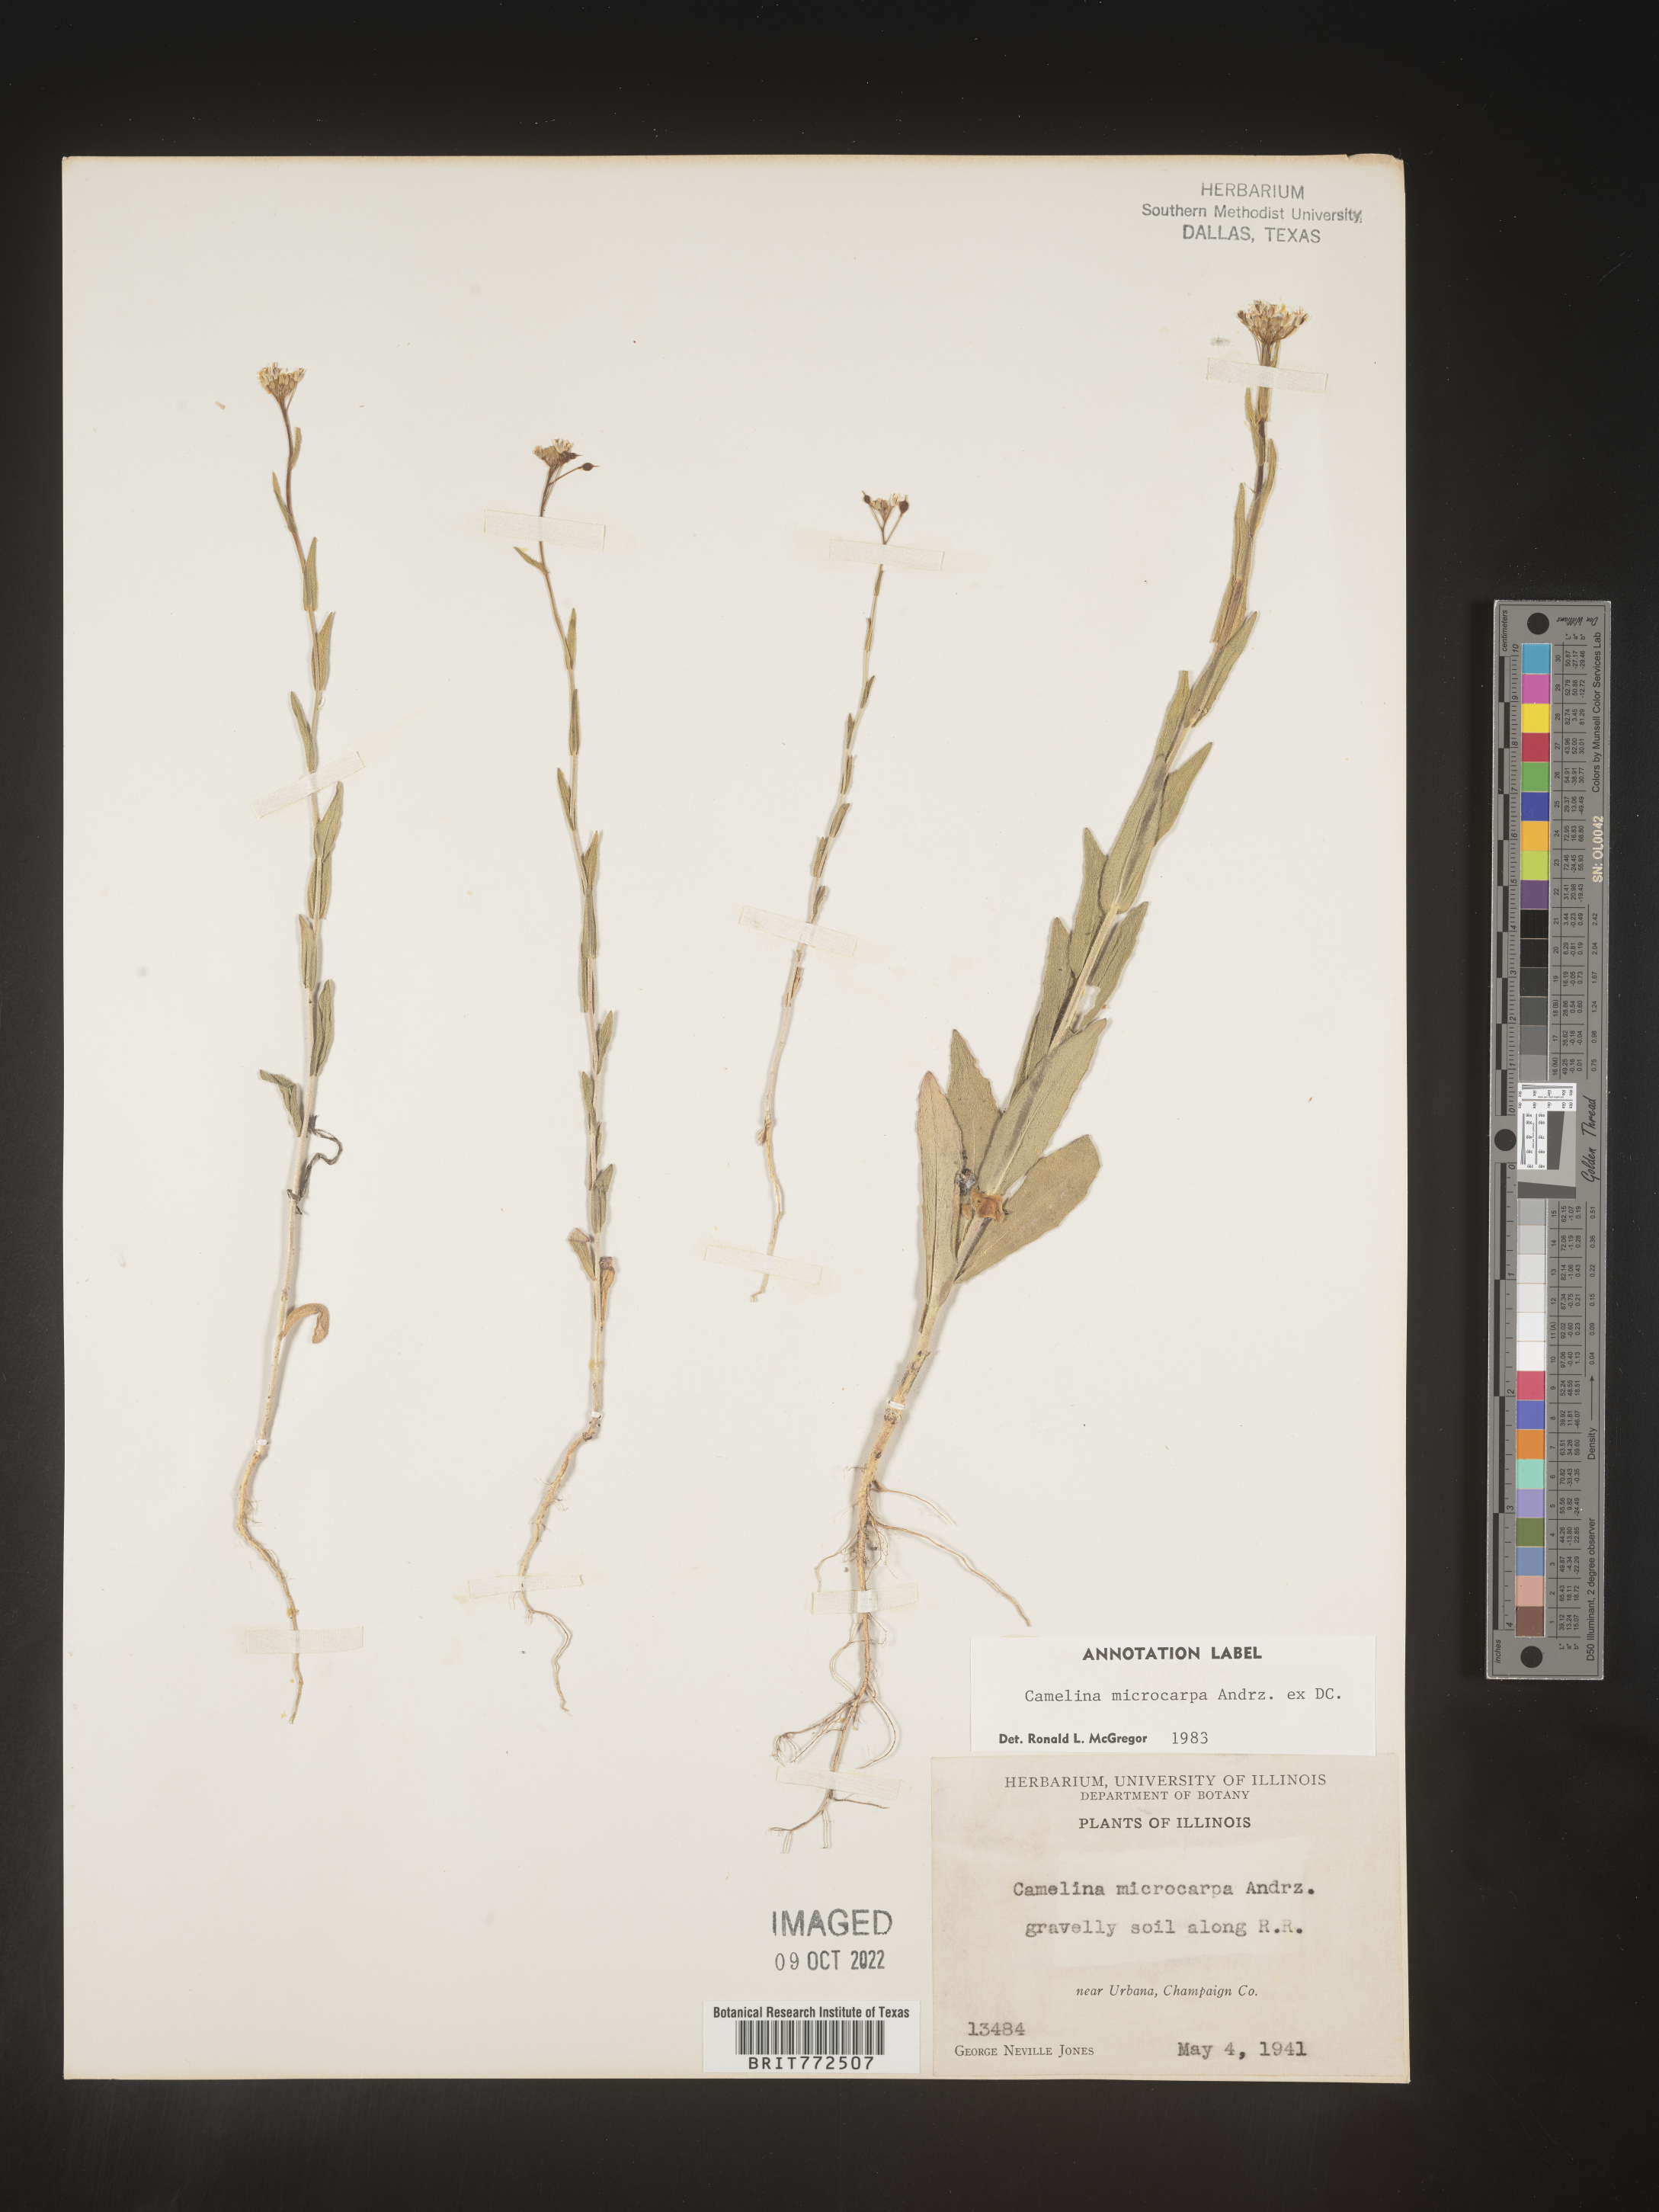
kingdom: Plantae
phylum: Tracheophyta
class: Magnoliopsida
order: Brassicales
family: Brassicaceae
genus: Camelina
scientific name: Camelina microcarpa
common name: Lesser gold-of-pleasure
